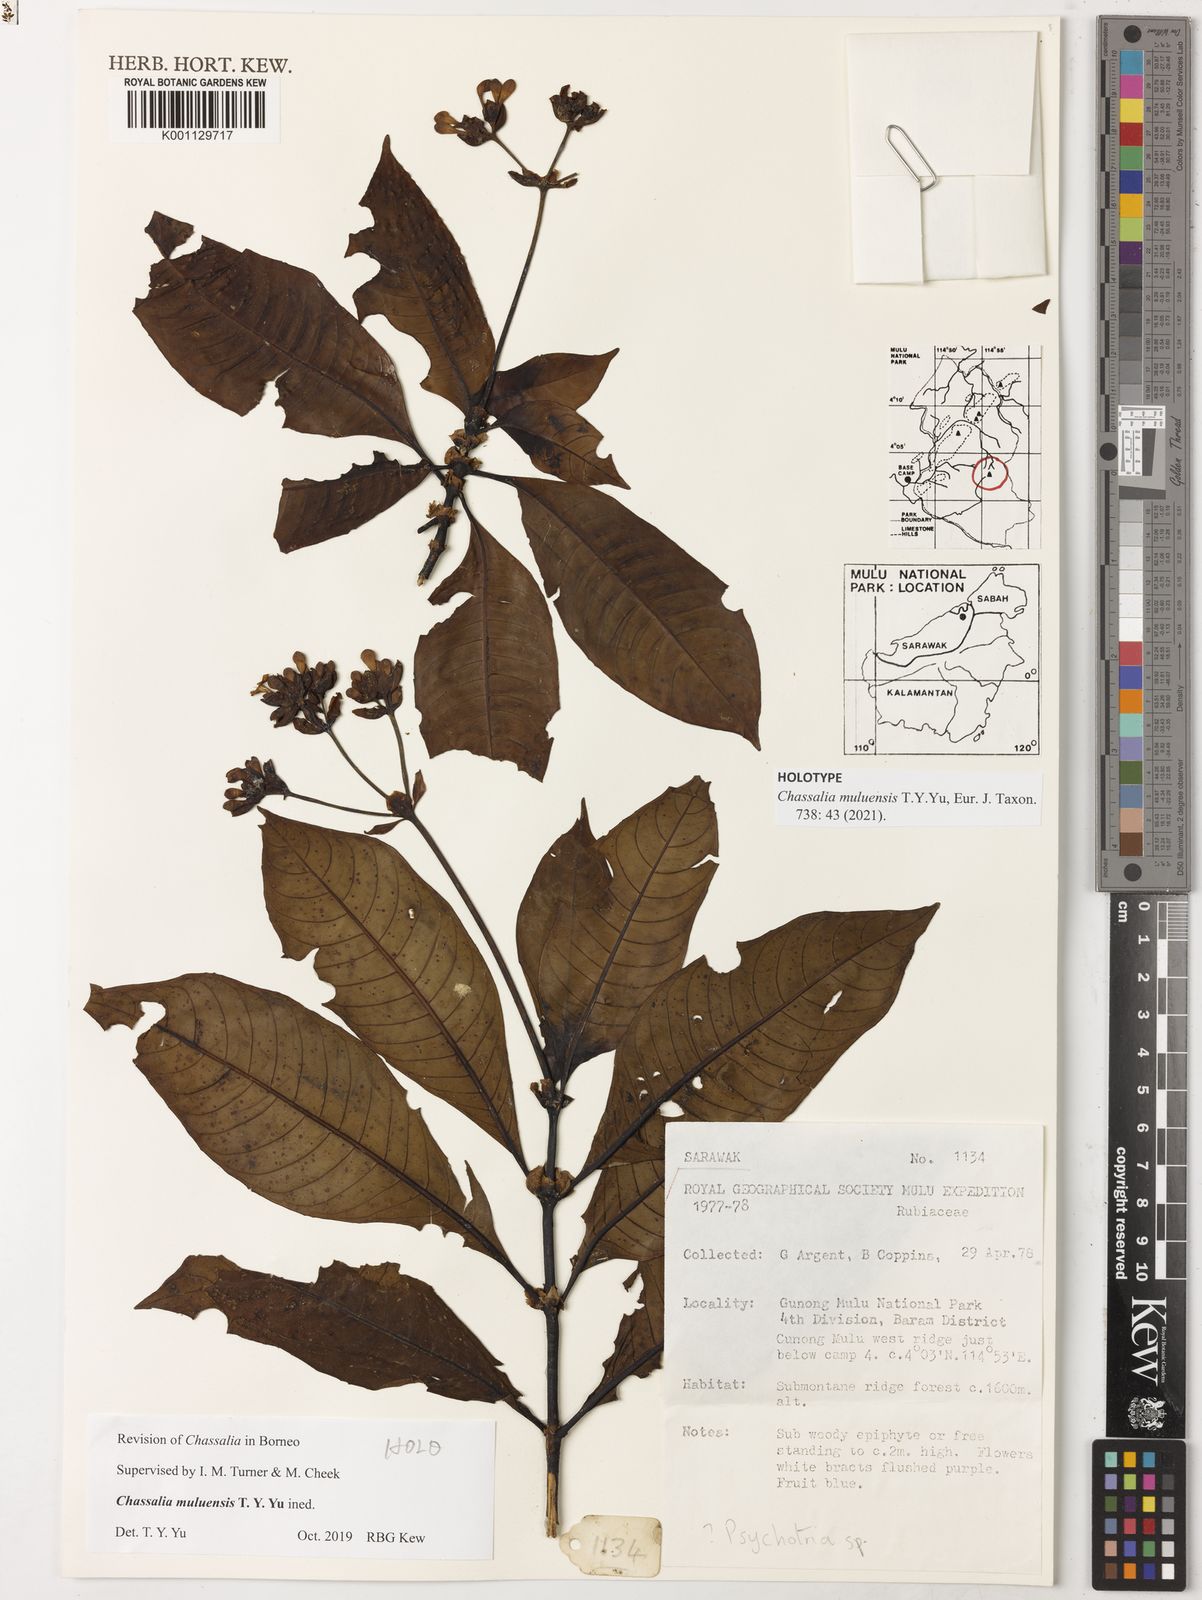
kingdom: Plantae
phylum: Tracheophyta
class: Magnoliopsida
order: Gentianales
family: Rubiaceae
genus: Chassalia
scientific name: Chassalia
